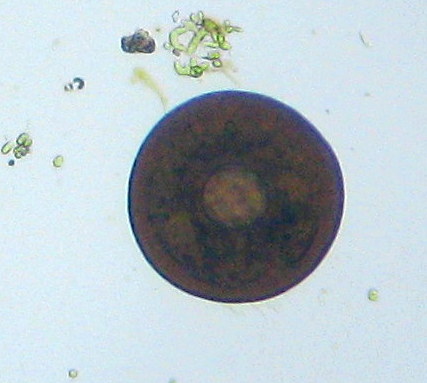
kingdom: Protozoa
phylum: Amoebozoa
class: Lobosa
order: Arcellinida
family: Arcellidae
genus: Arcella
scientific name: Arcella
